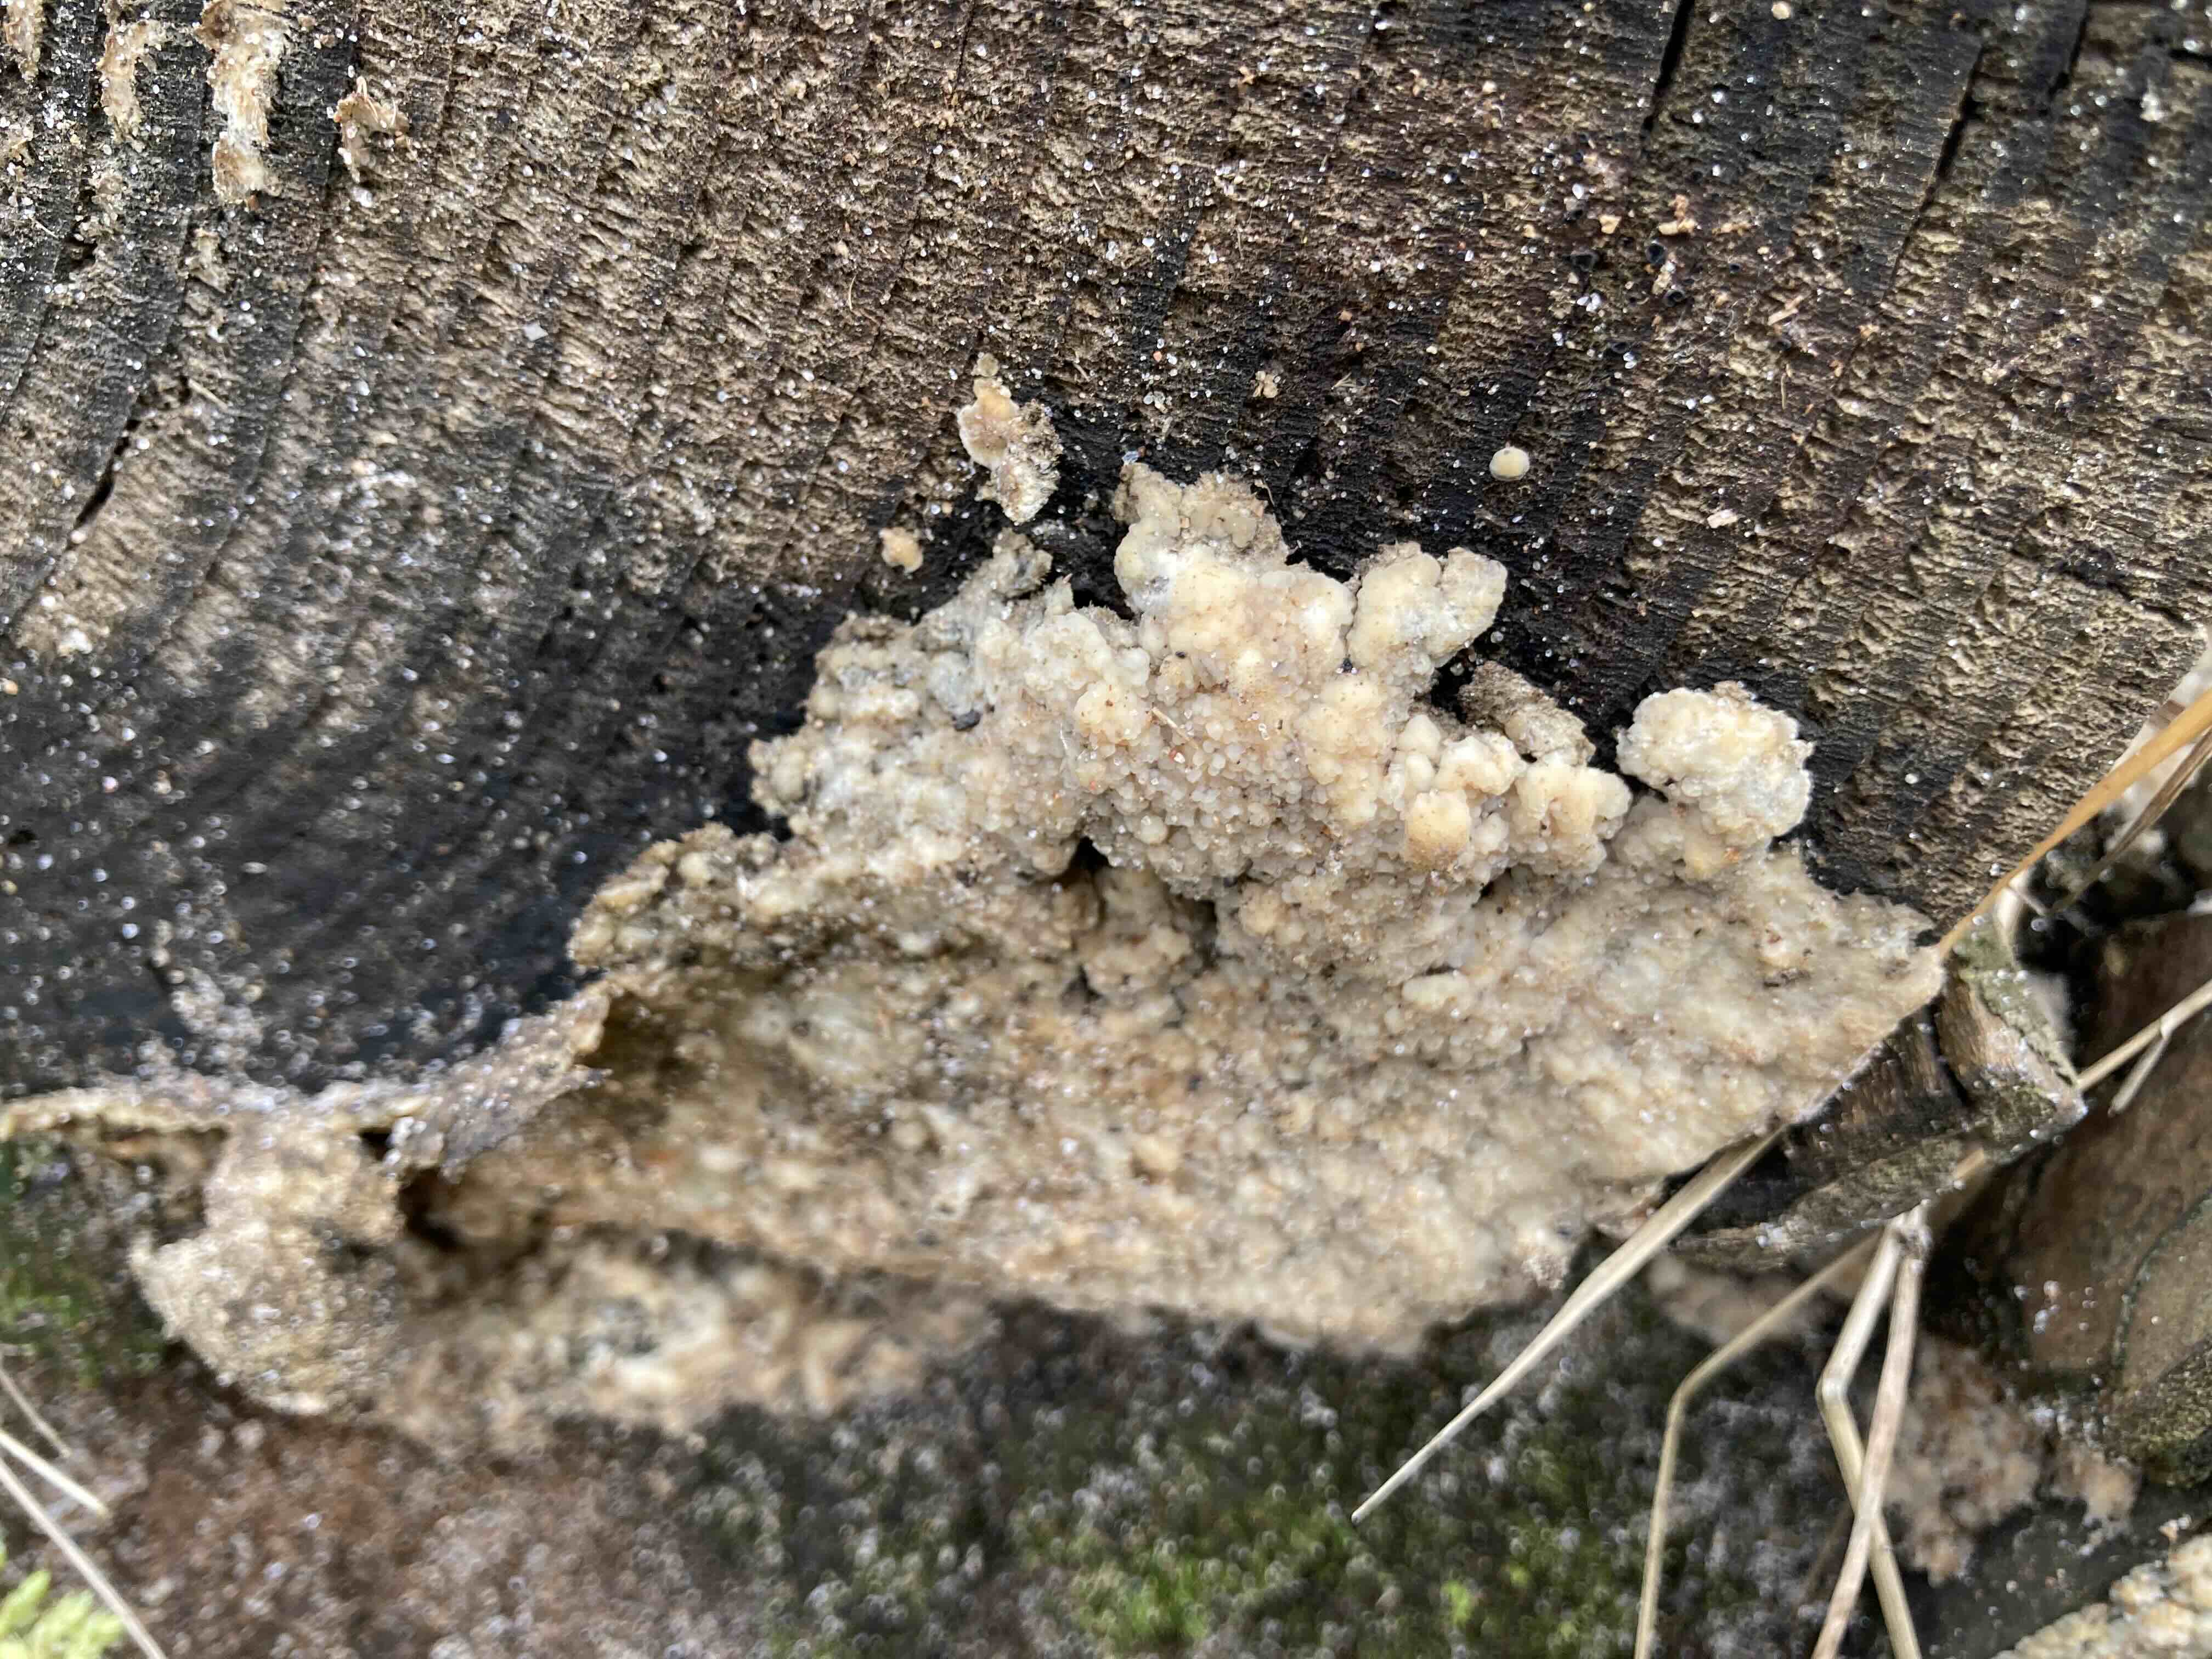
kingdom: Fungi
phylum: Basidiomycota
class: Agaricomycetes
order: Corticiales
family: Corticiaceae
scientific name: Corticiaceae
